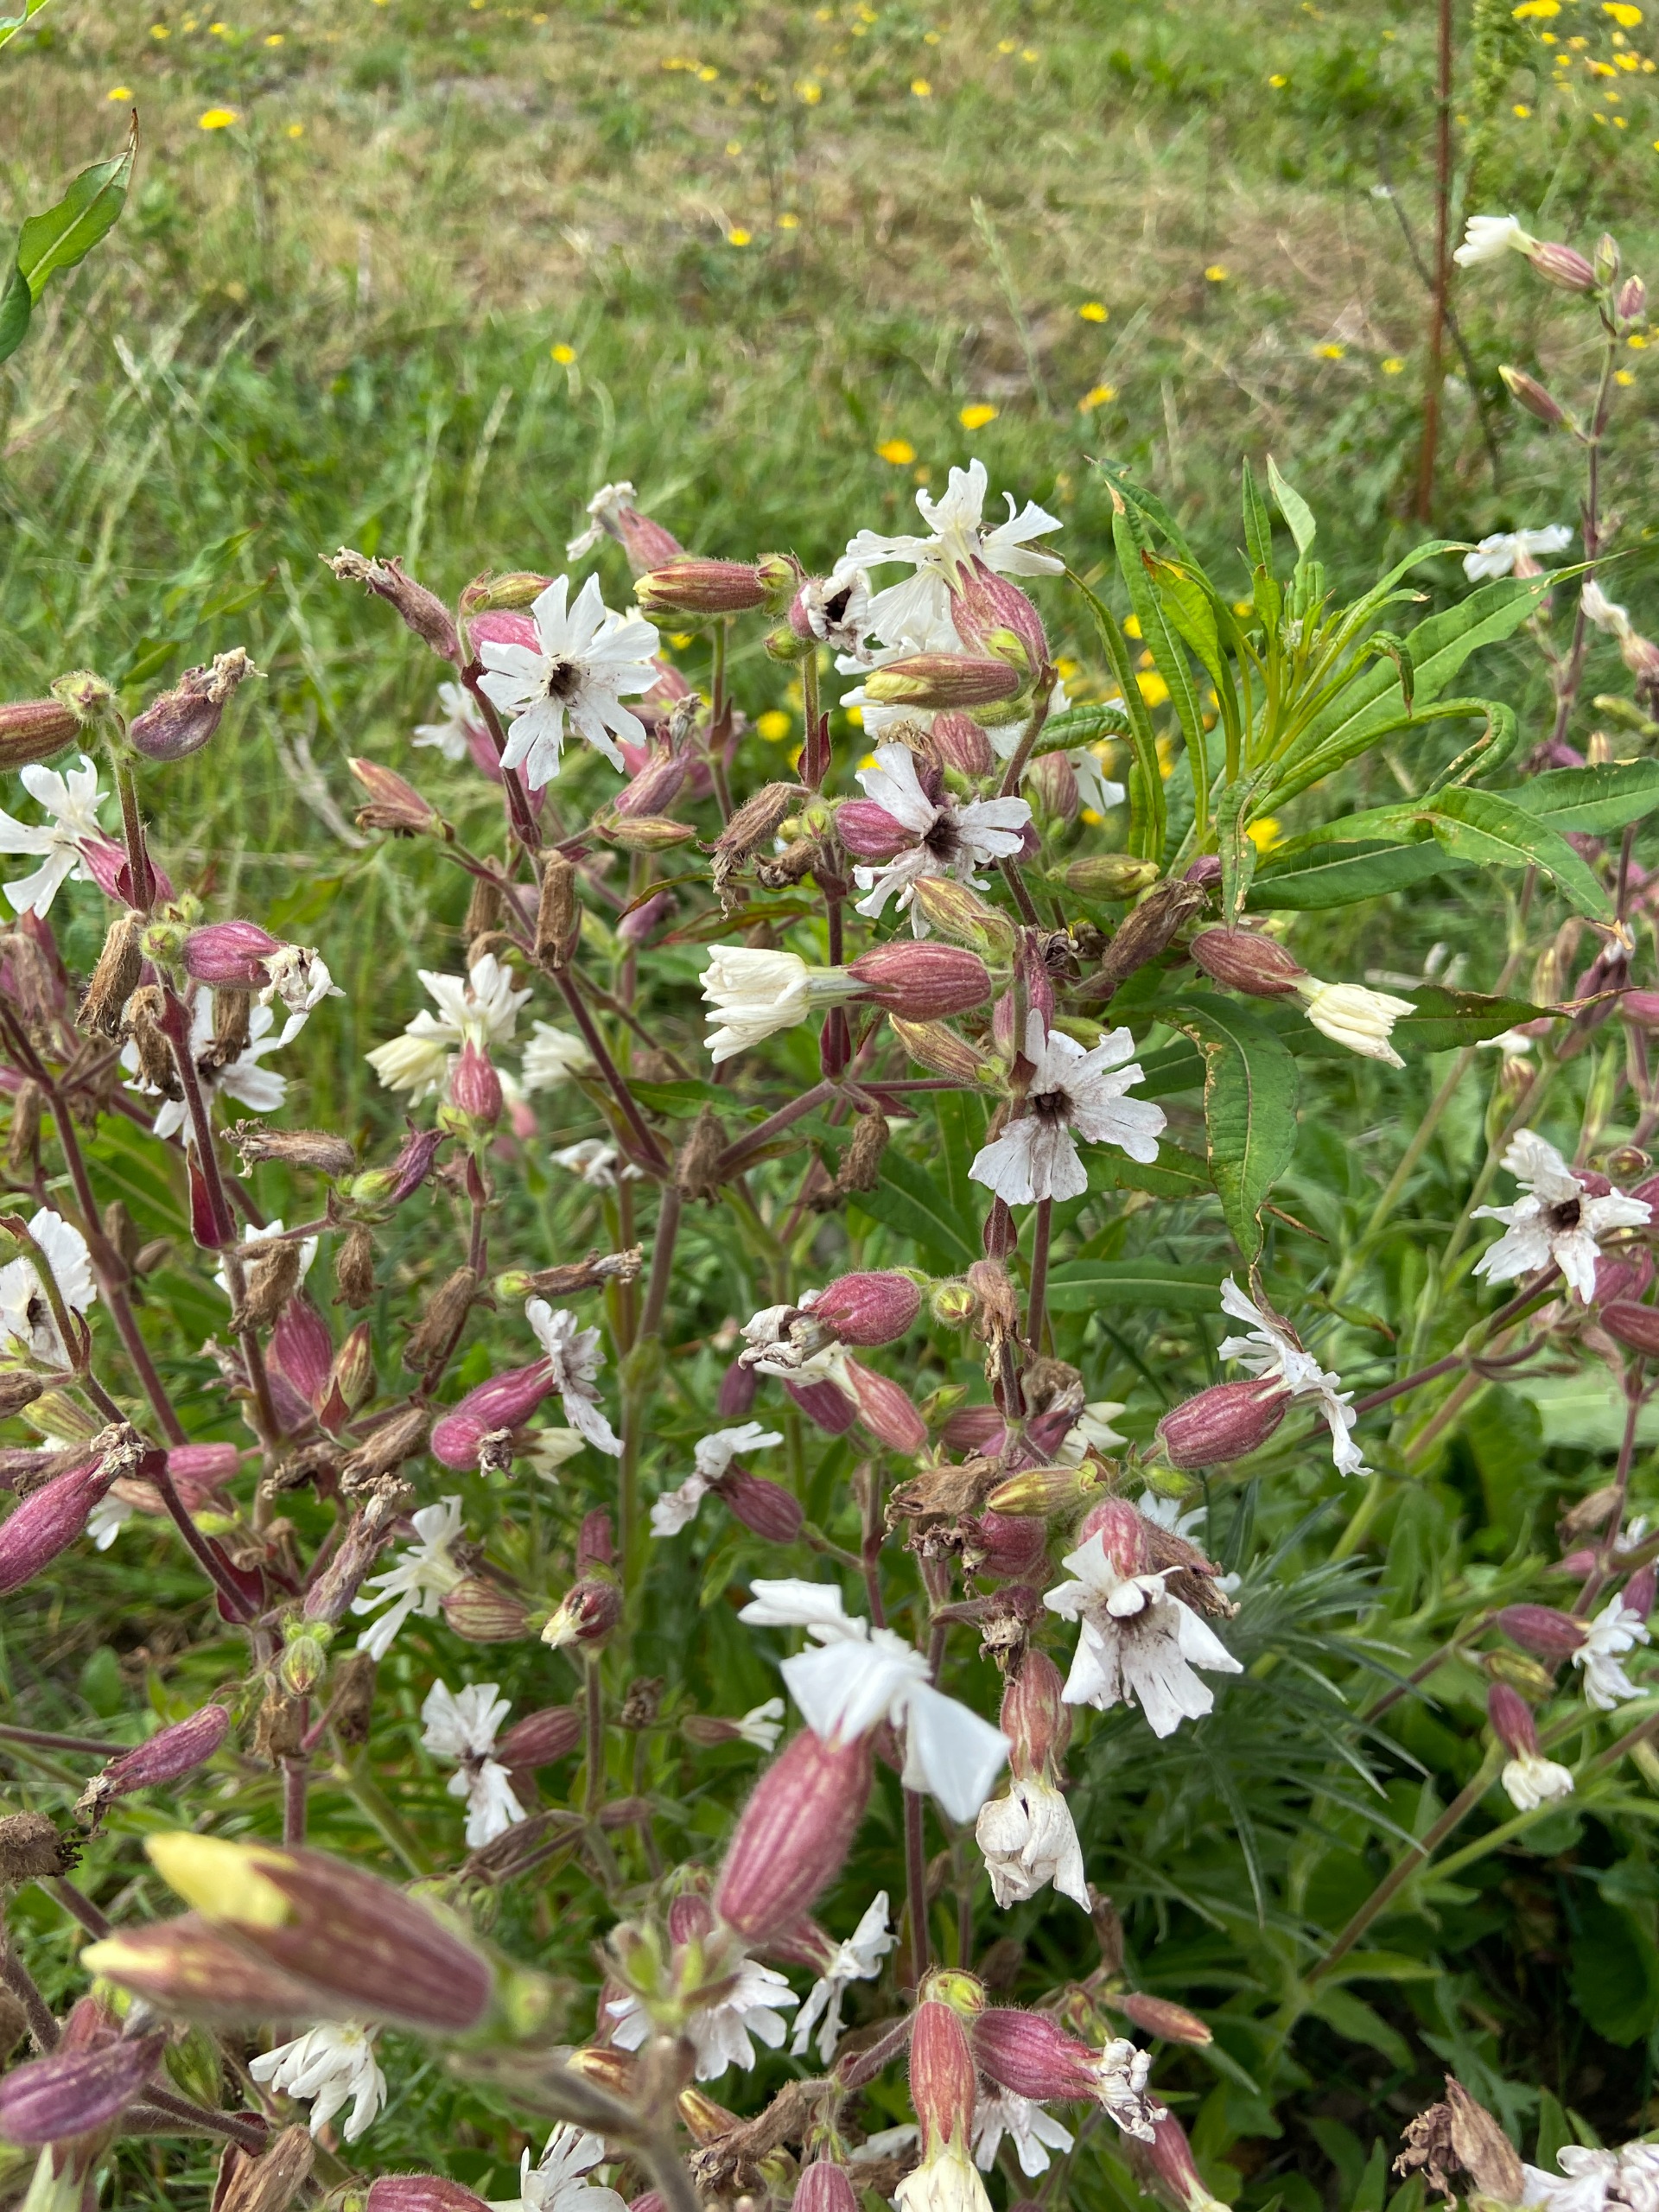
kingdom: Plantae
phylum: Tracheophyta
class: Magnoliopsida
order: Caryophyllales
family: Caryophyllaceae
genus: Silene
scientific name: Silene latifolia
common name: Aftenpragtstjerne
